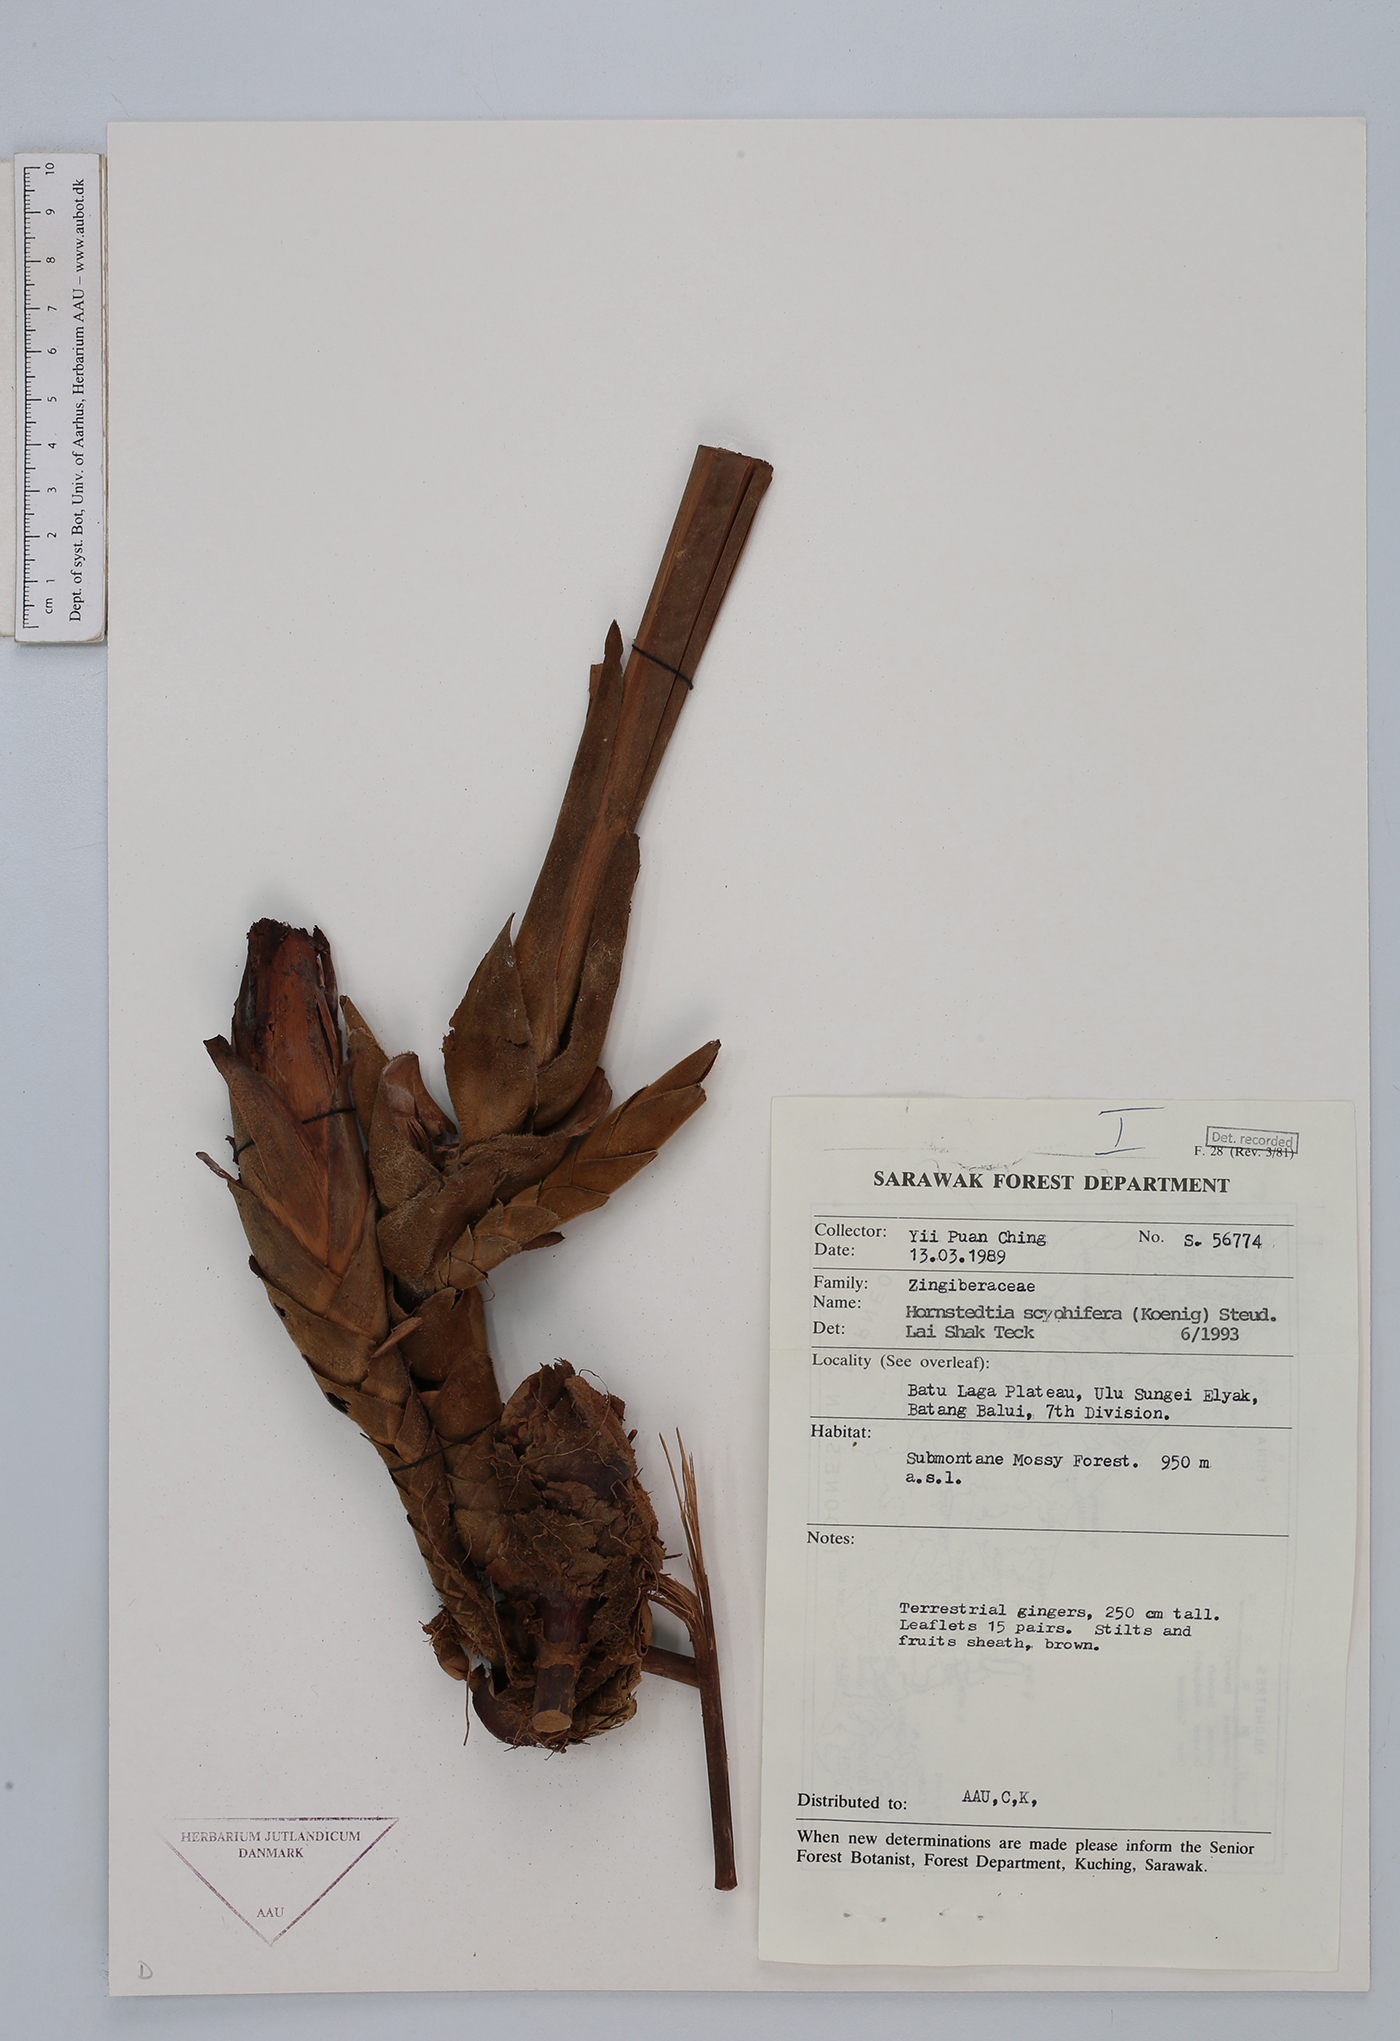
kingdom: Plantae
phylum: Tracheophyta
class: Liliopsida
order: Zingiberales
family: Zingiberaceae
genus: Hornstedtia
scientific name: Hornstedtia scyphifera
